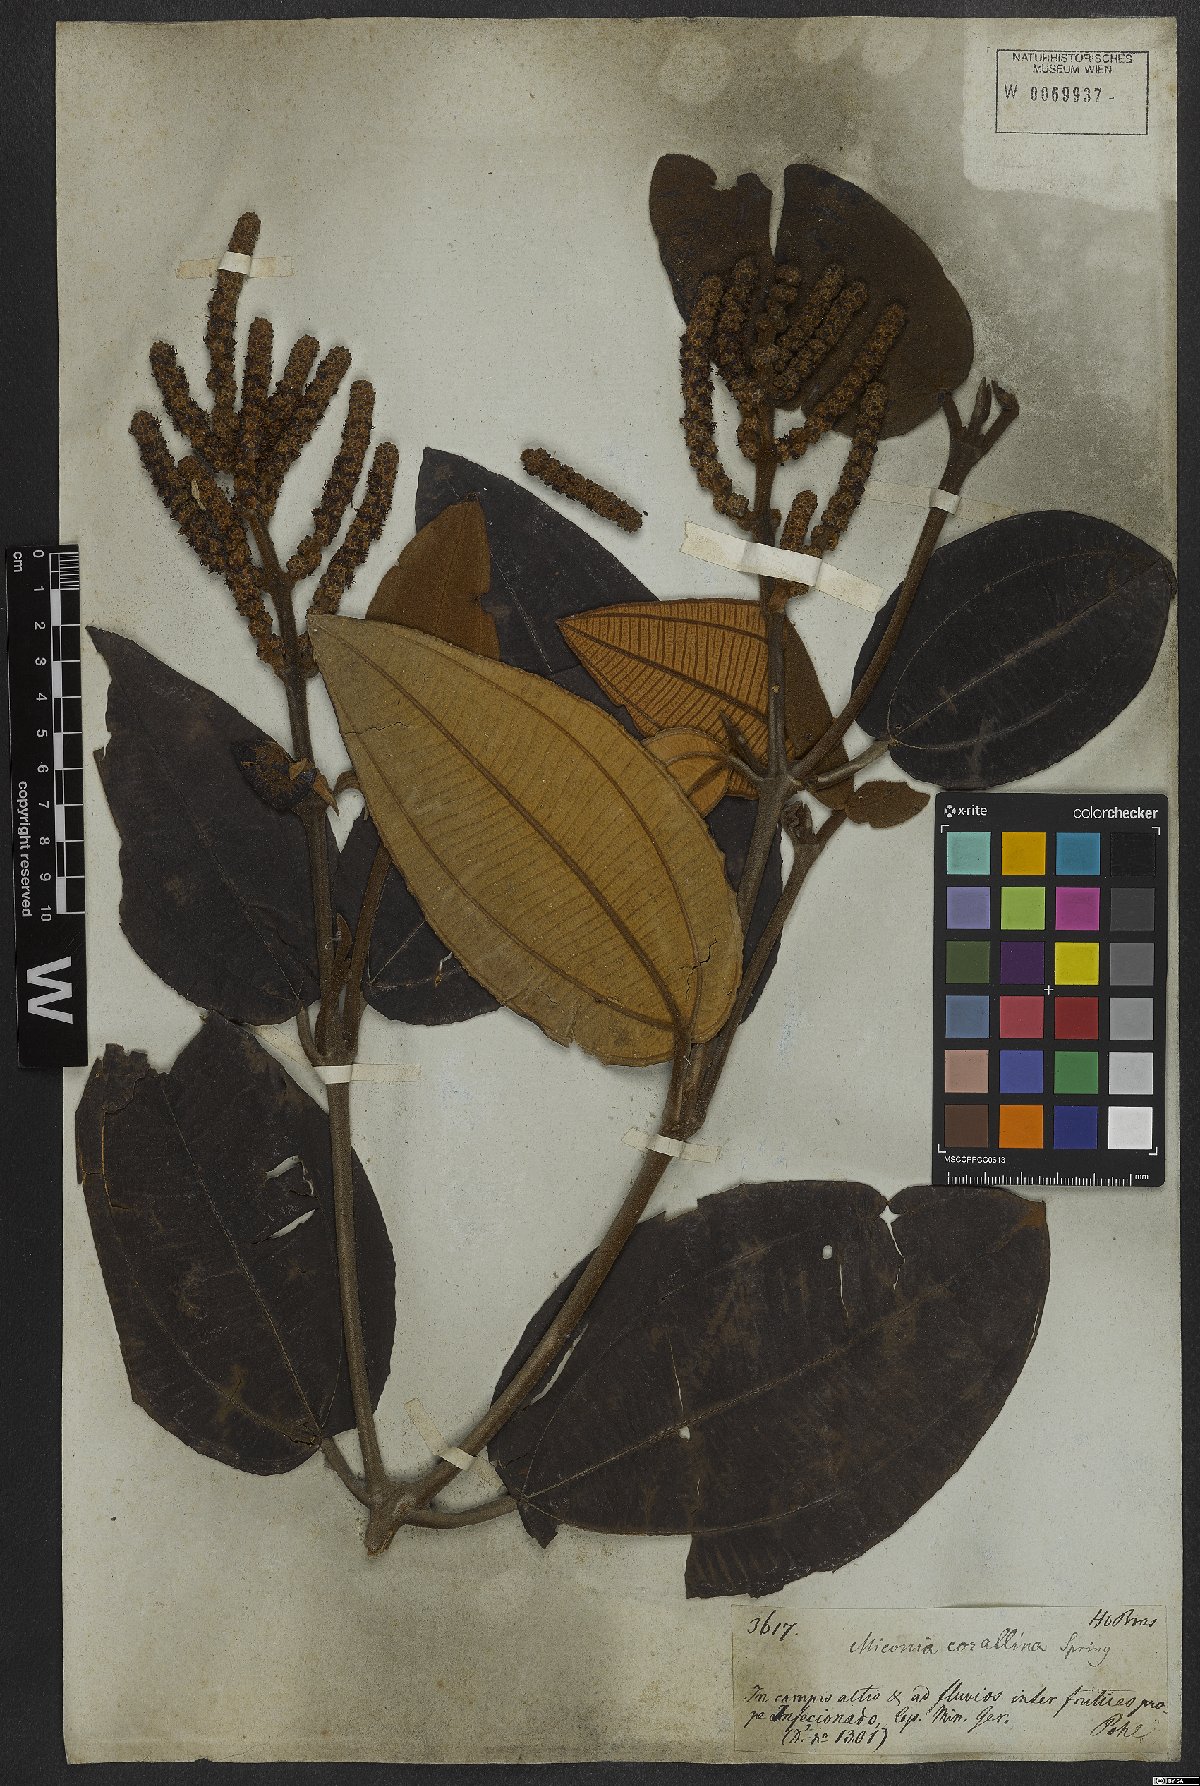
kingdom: Plantae
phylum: Tracheophyta
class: Magnoliopsida
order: Myrtales
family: Melastomataceae
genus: Miconia
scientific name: Miconia corallina
